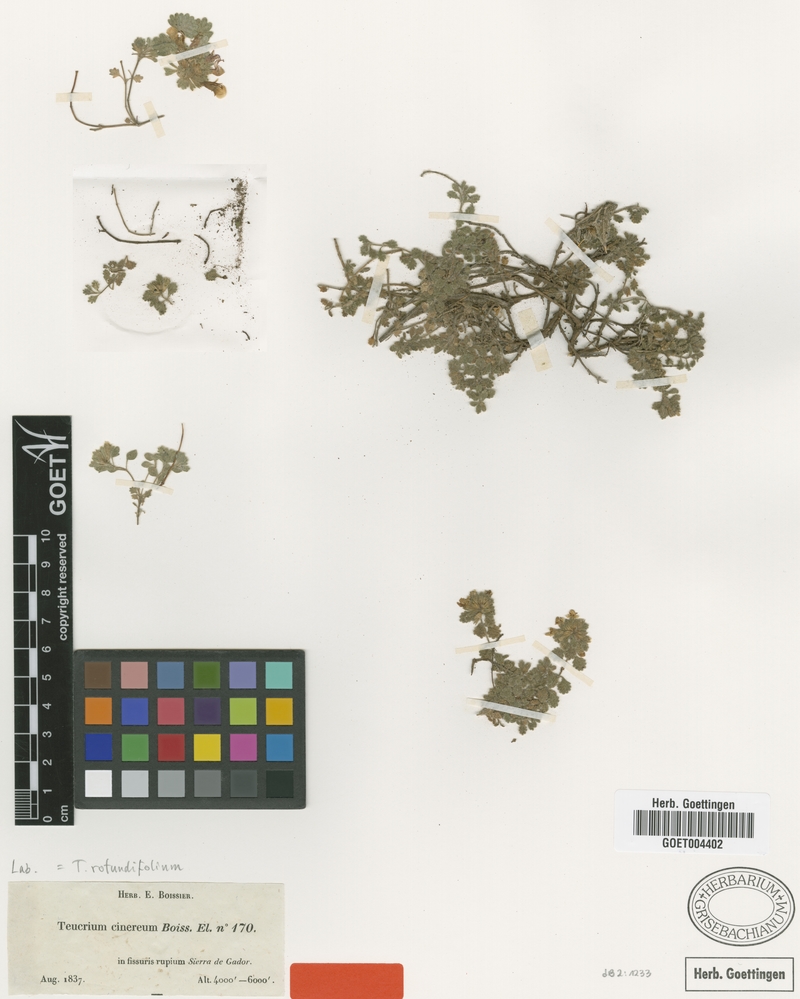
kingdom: Plantae
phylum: Tracheophyta
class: Magnoliopsida
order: Lamiales
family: Lamiaceae
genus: Teucrium
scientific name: Teucrium rotundifolium
